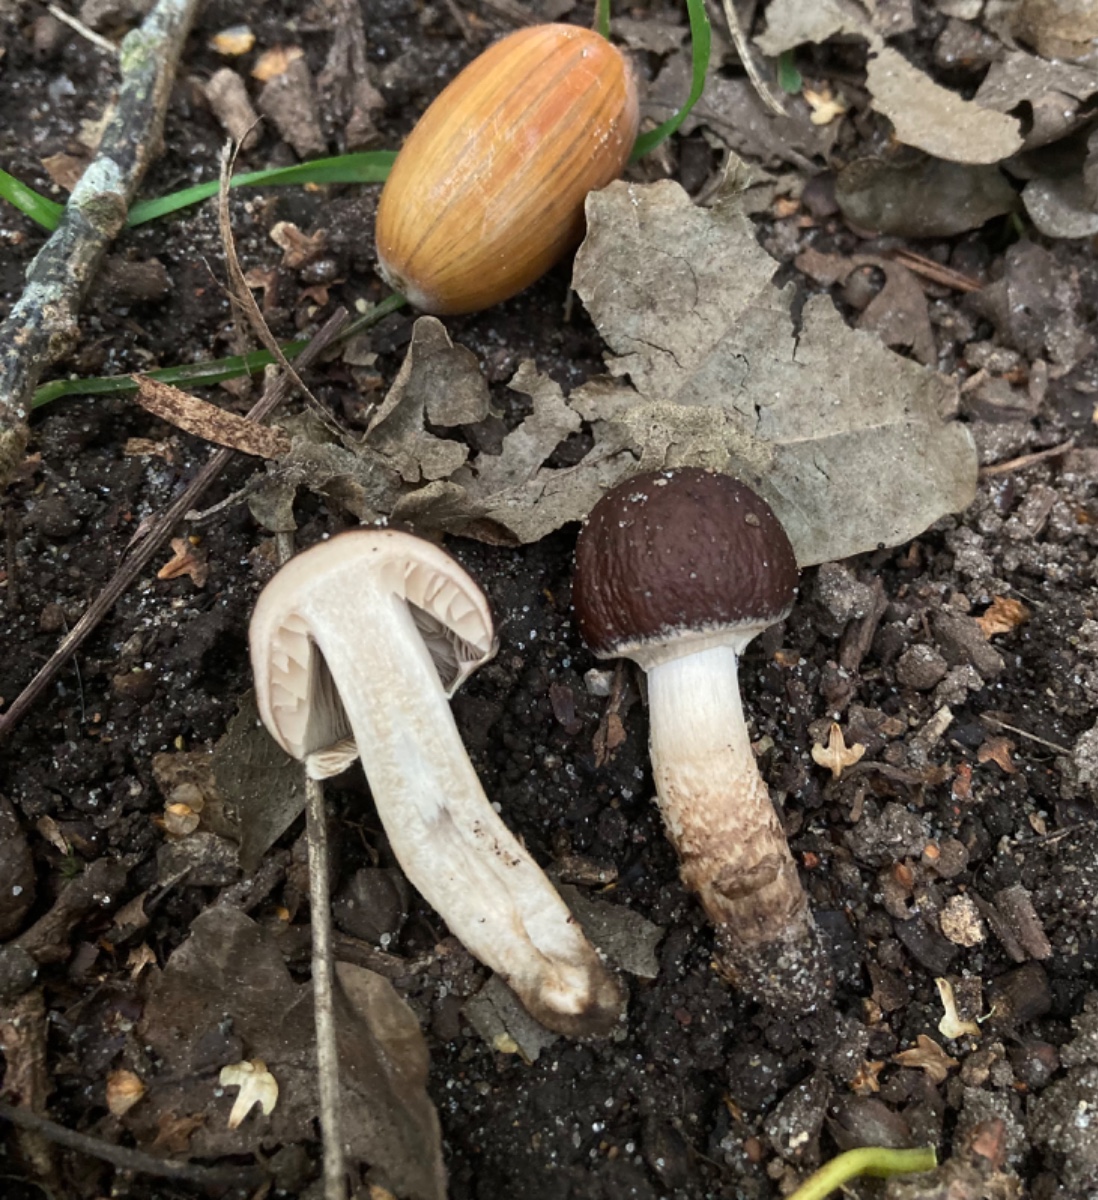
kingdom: Fungi
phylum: Basidiomycota
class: Agaricomycetes
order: Agaricales
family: Tubariaceae
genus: Cyclocybe
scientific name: Cyclocybe erebia
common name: mørk agerhat
